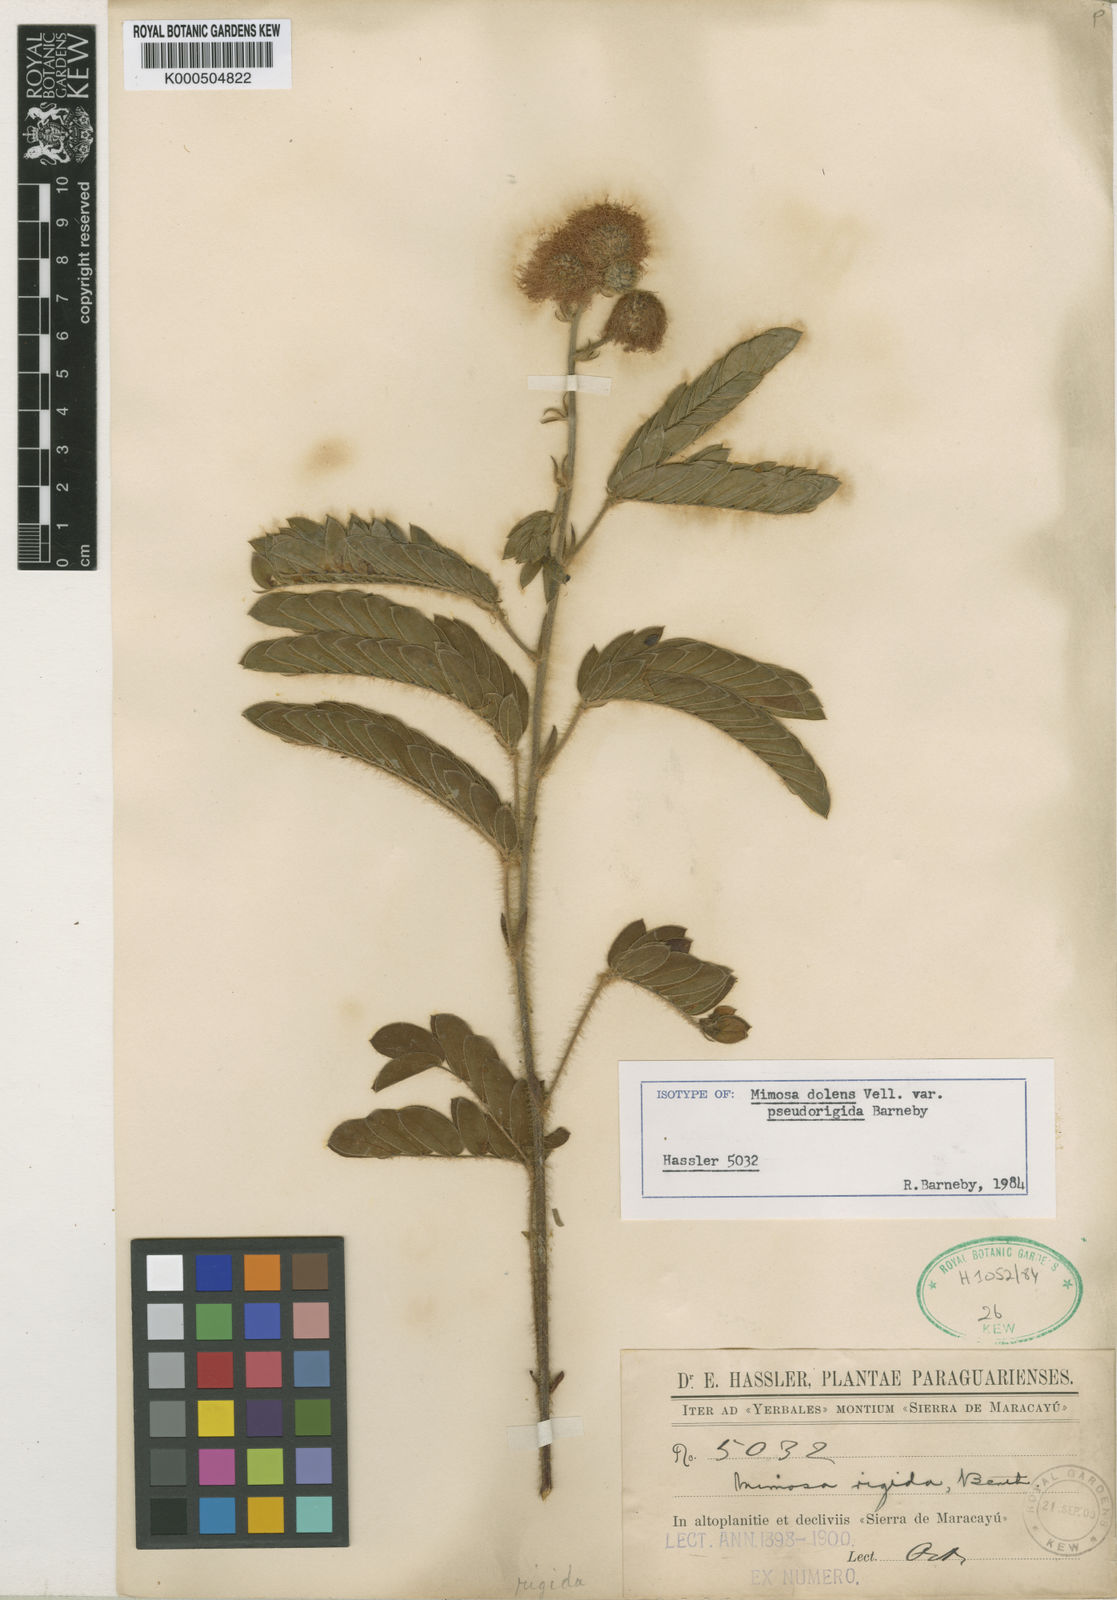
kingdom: Plantae
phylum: Tracheophyta
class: Magnoliopsida
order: Fabales
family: Fabaceae
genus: Mimosa
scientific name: Mimosa dolens
